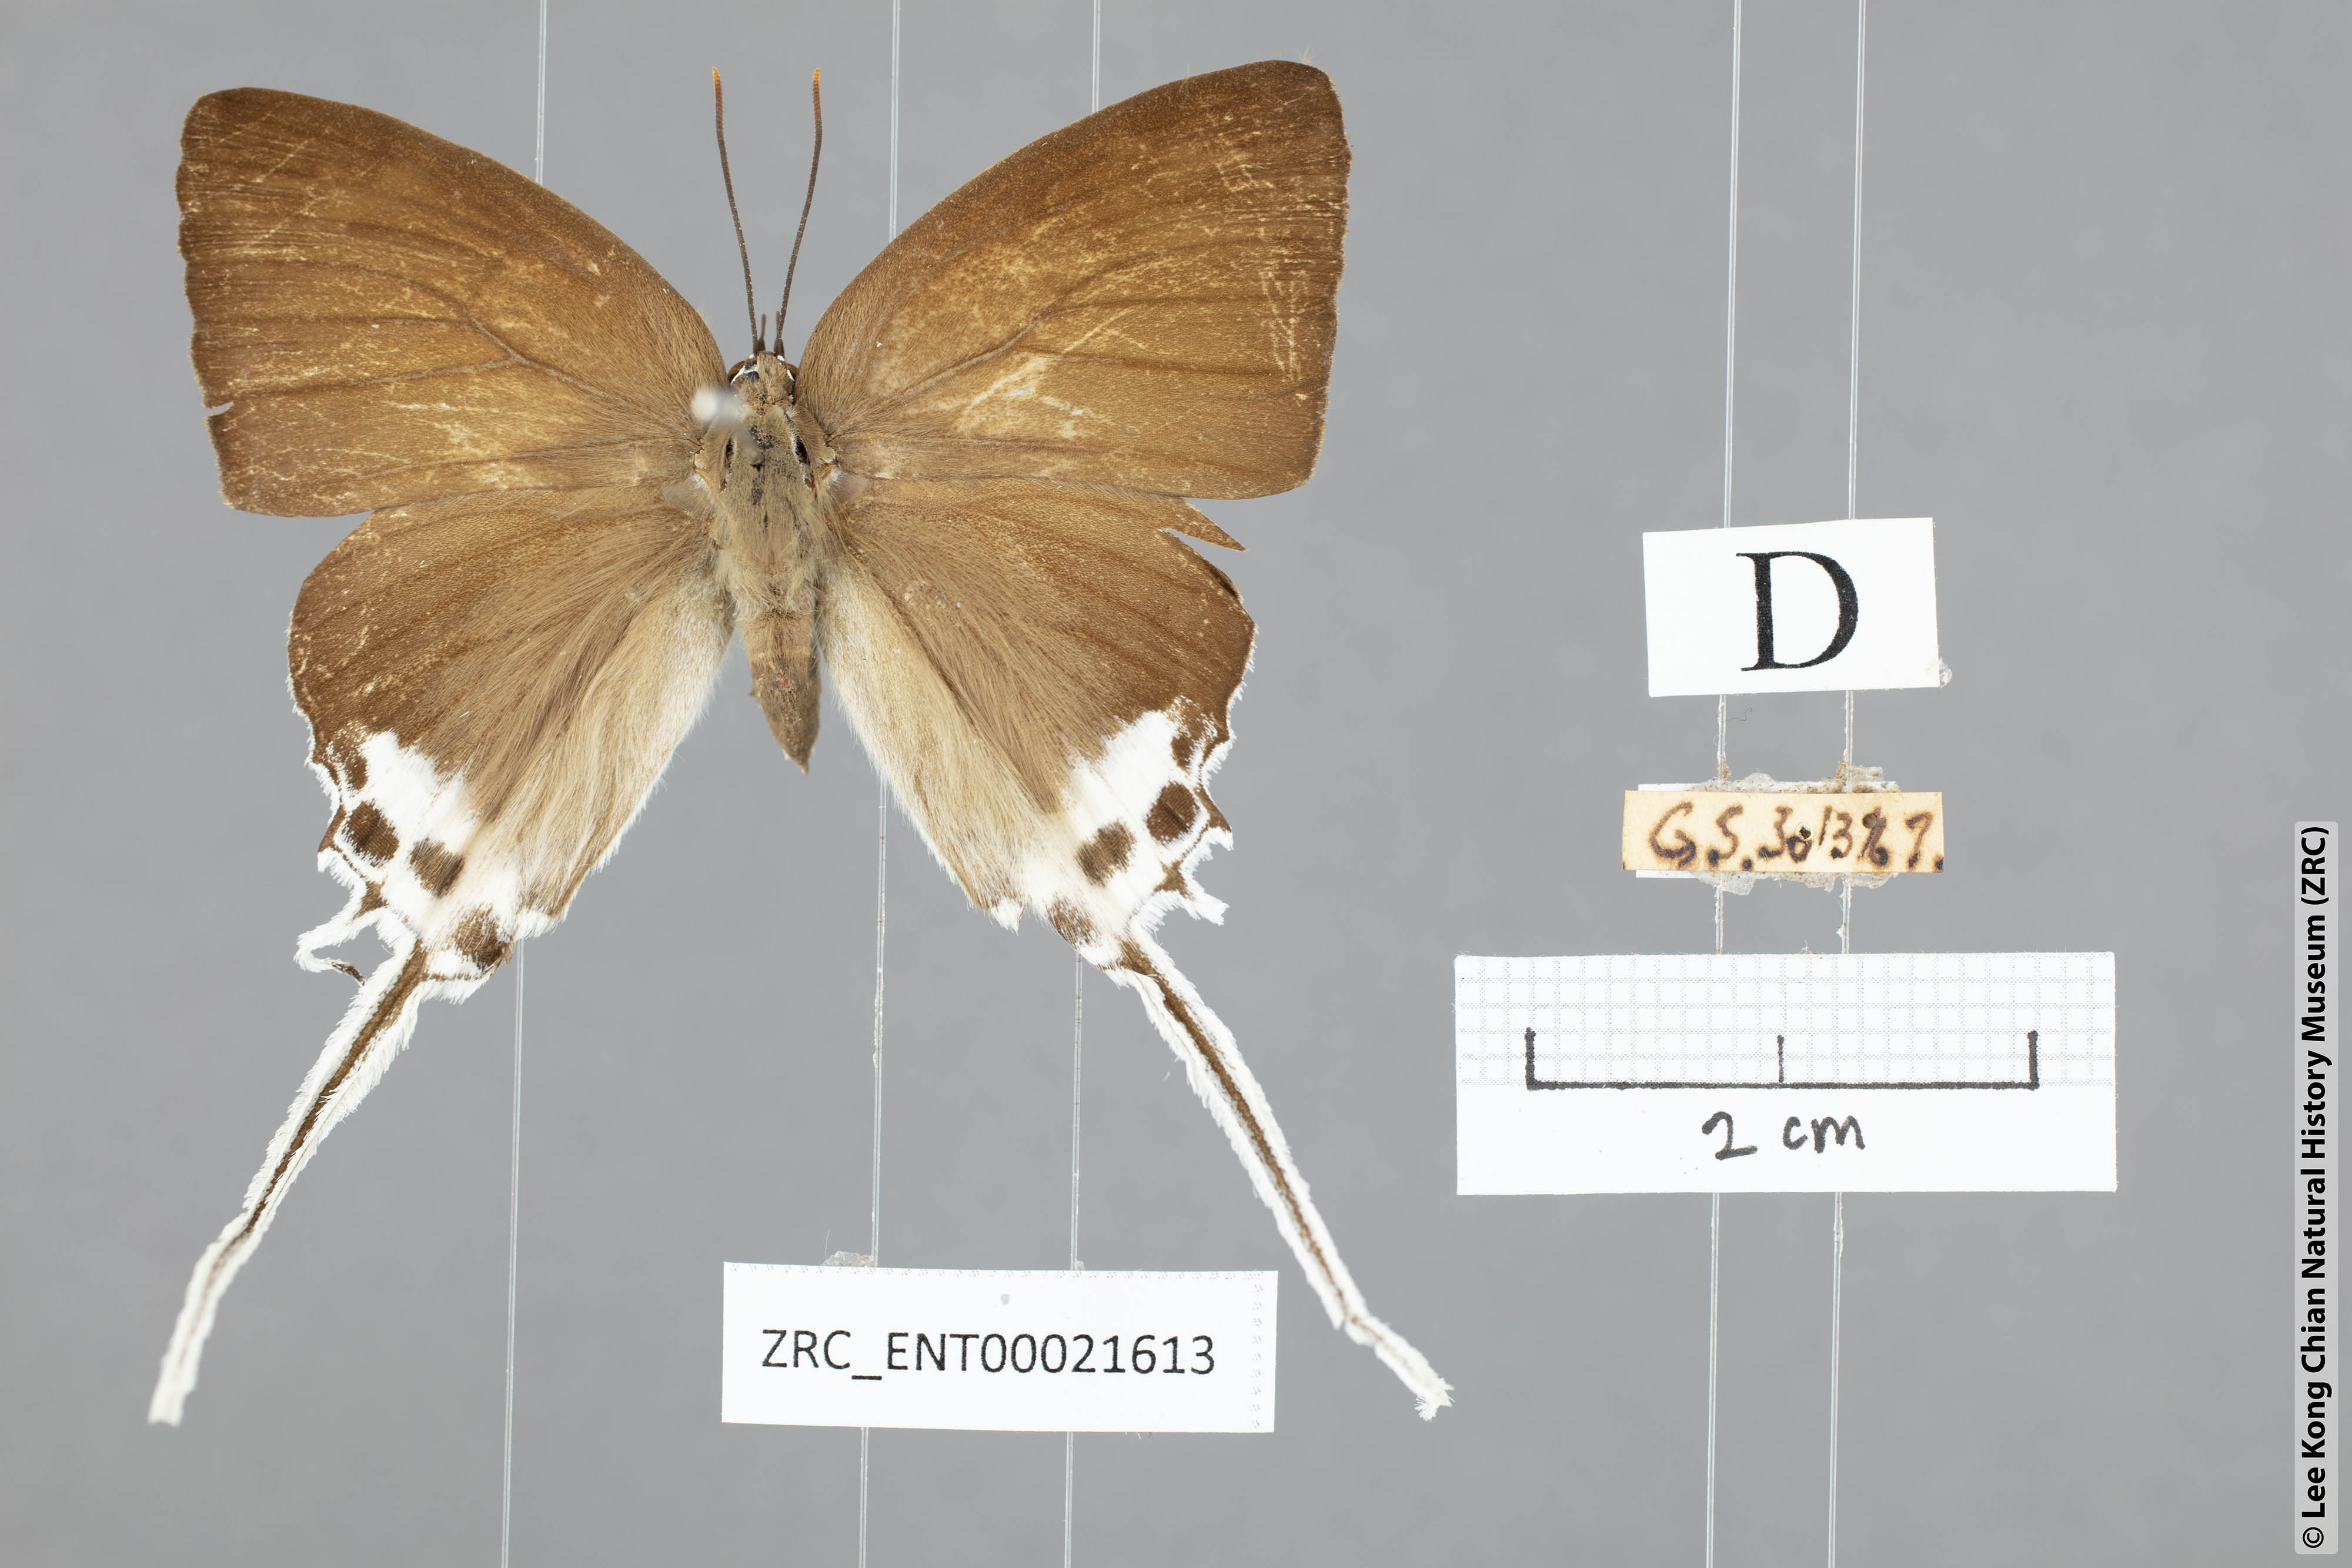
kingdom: Animalia
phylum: Arthropoda
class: Insecta
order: Lepidoptera
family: Lycaenidae
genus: Jacoona
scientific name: Jacoona anasuja
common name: Great imperial
